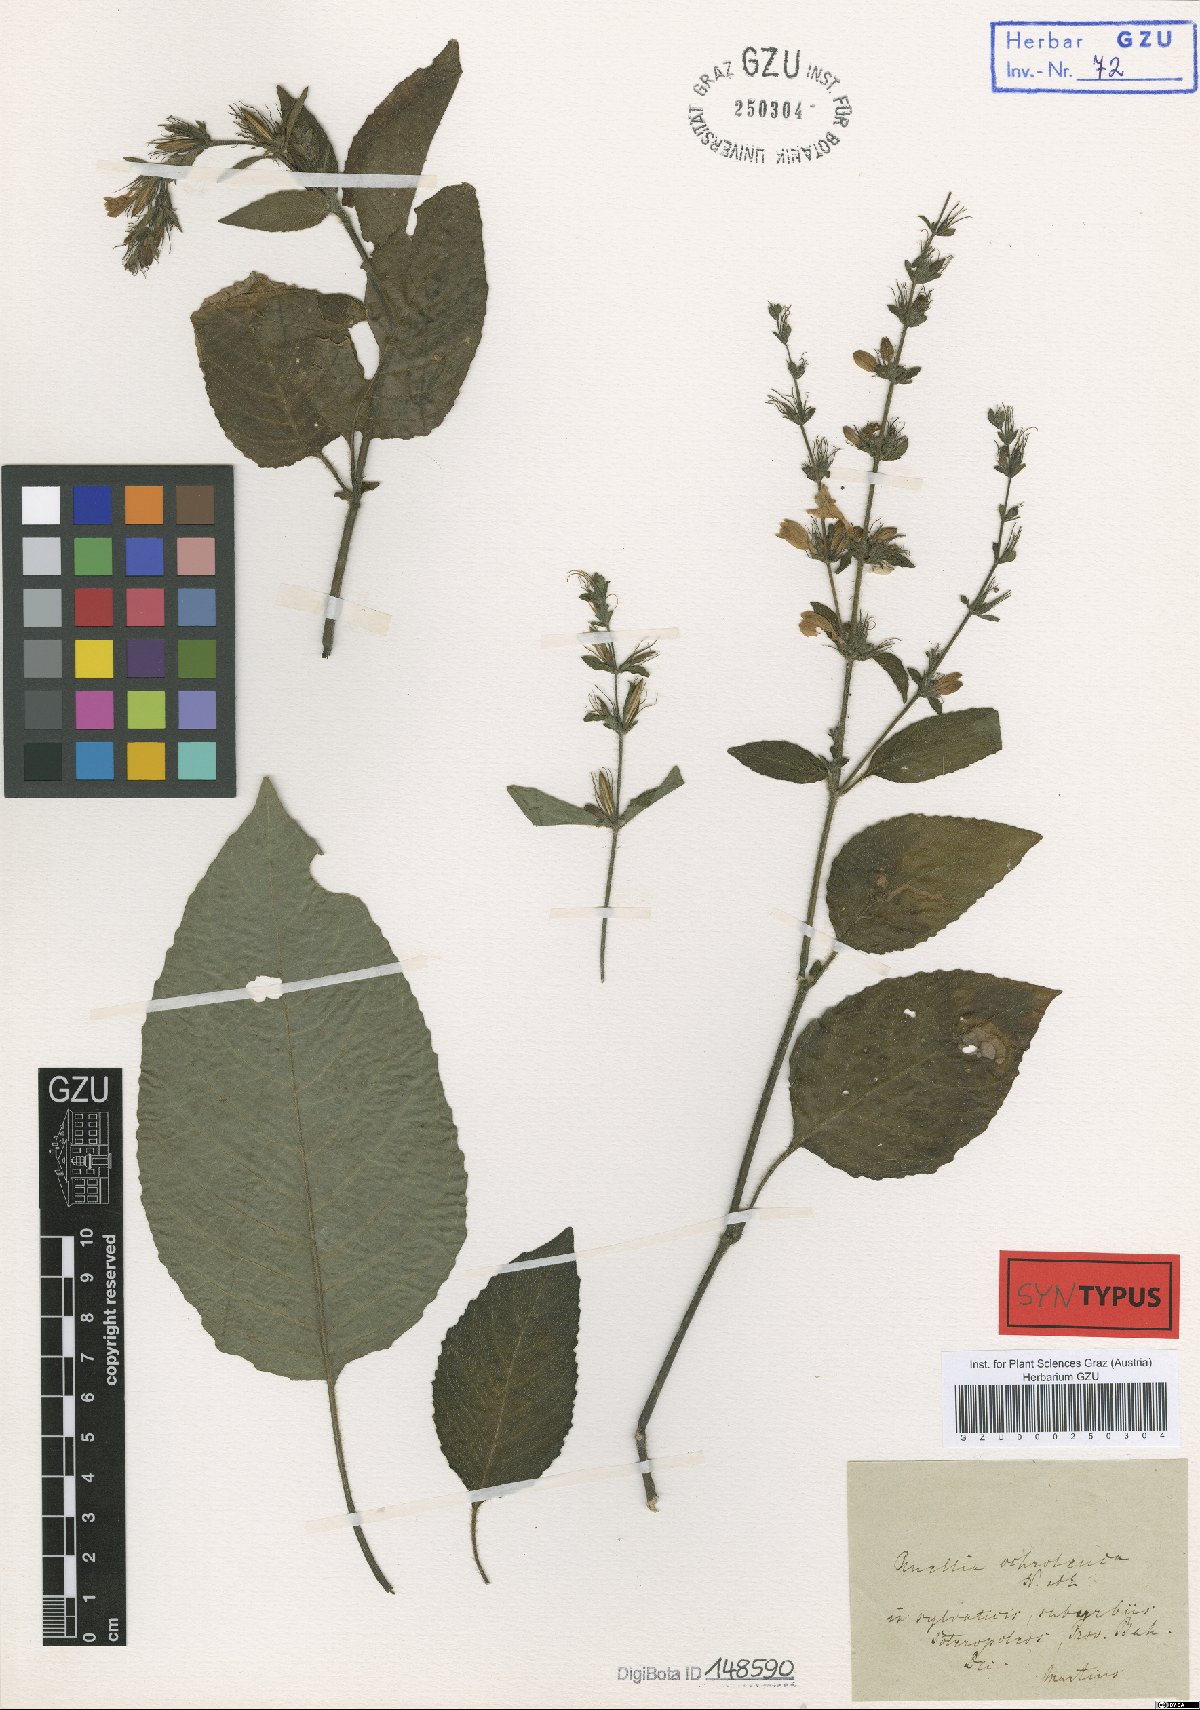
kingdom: Plantae
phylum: Tracheophyta
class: Magnoliopsida
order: Lamiales
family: Acanthaceae
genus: Ruellia
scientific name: Ruellia ochroleuca
